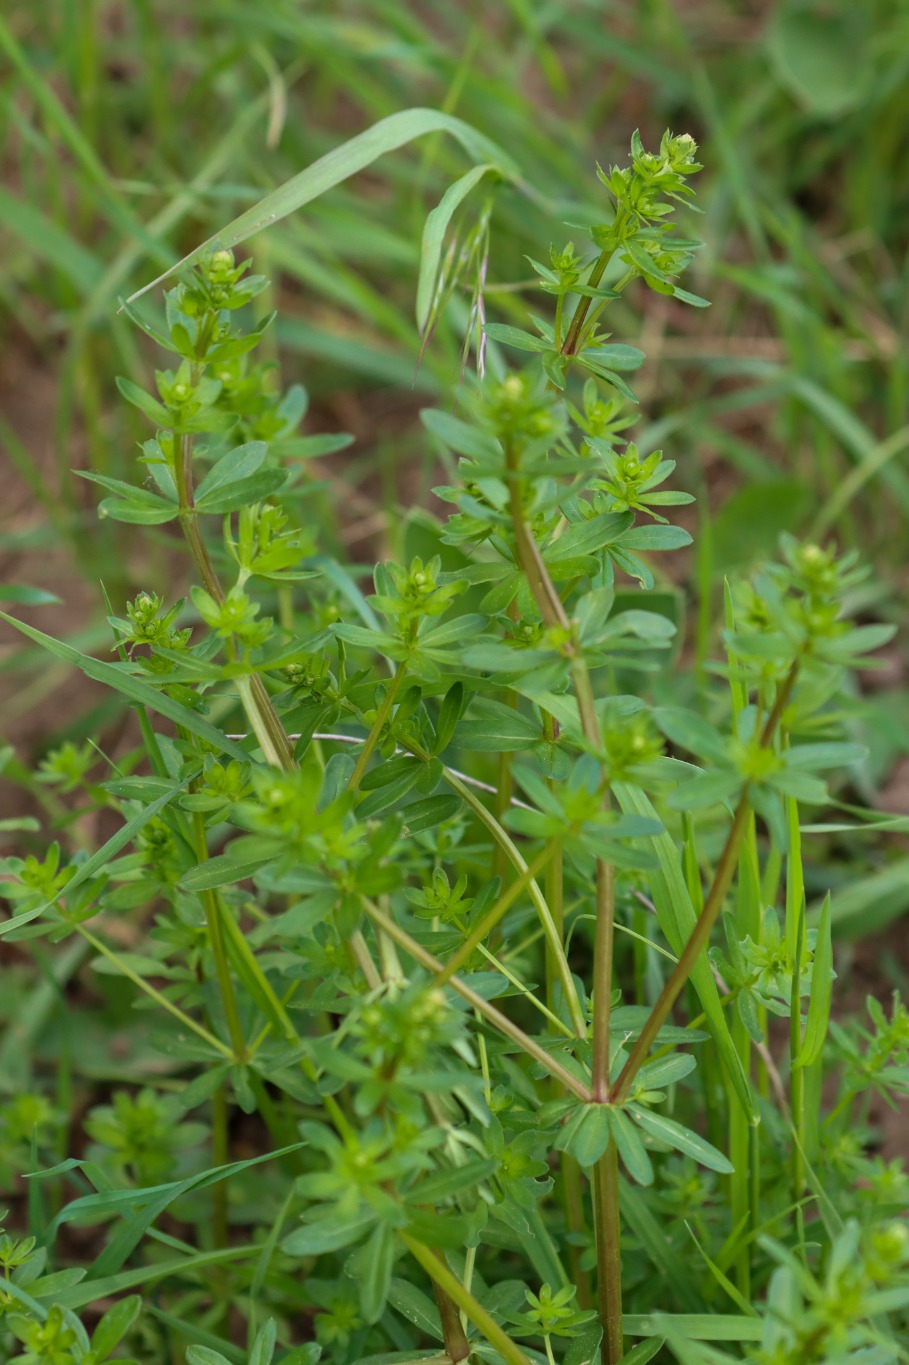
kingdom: Plantae
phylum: Tracheophyta
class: Magnoliopsida
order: Gentianales
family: Rubiaceae
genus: Galium
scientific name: Galium mollugo
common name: Hvid snerre
